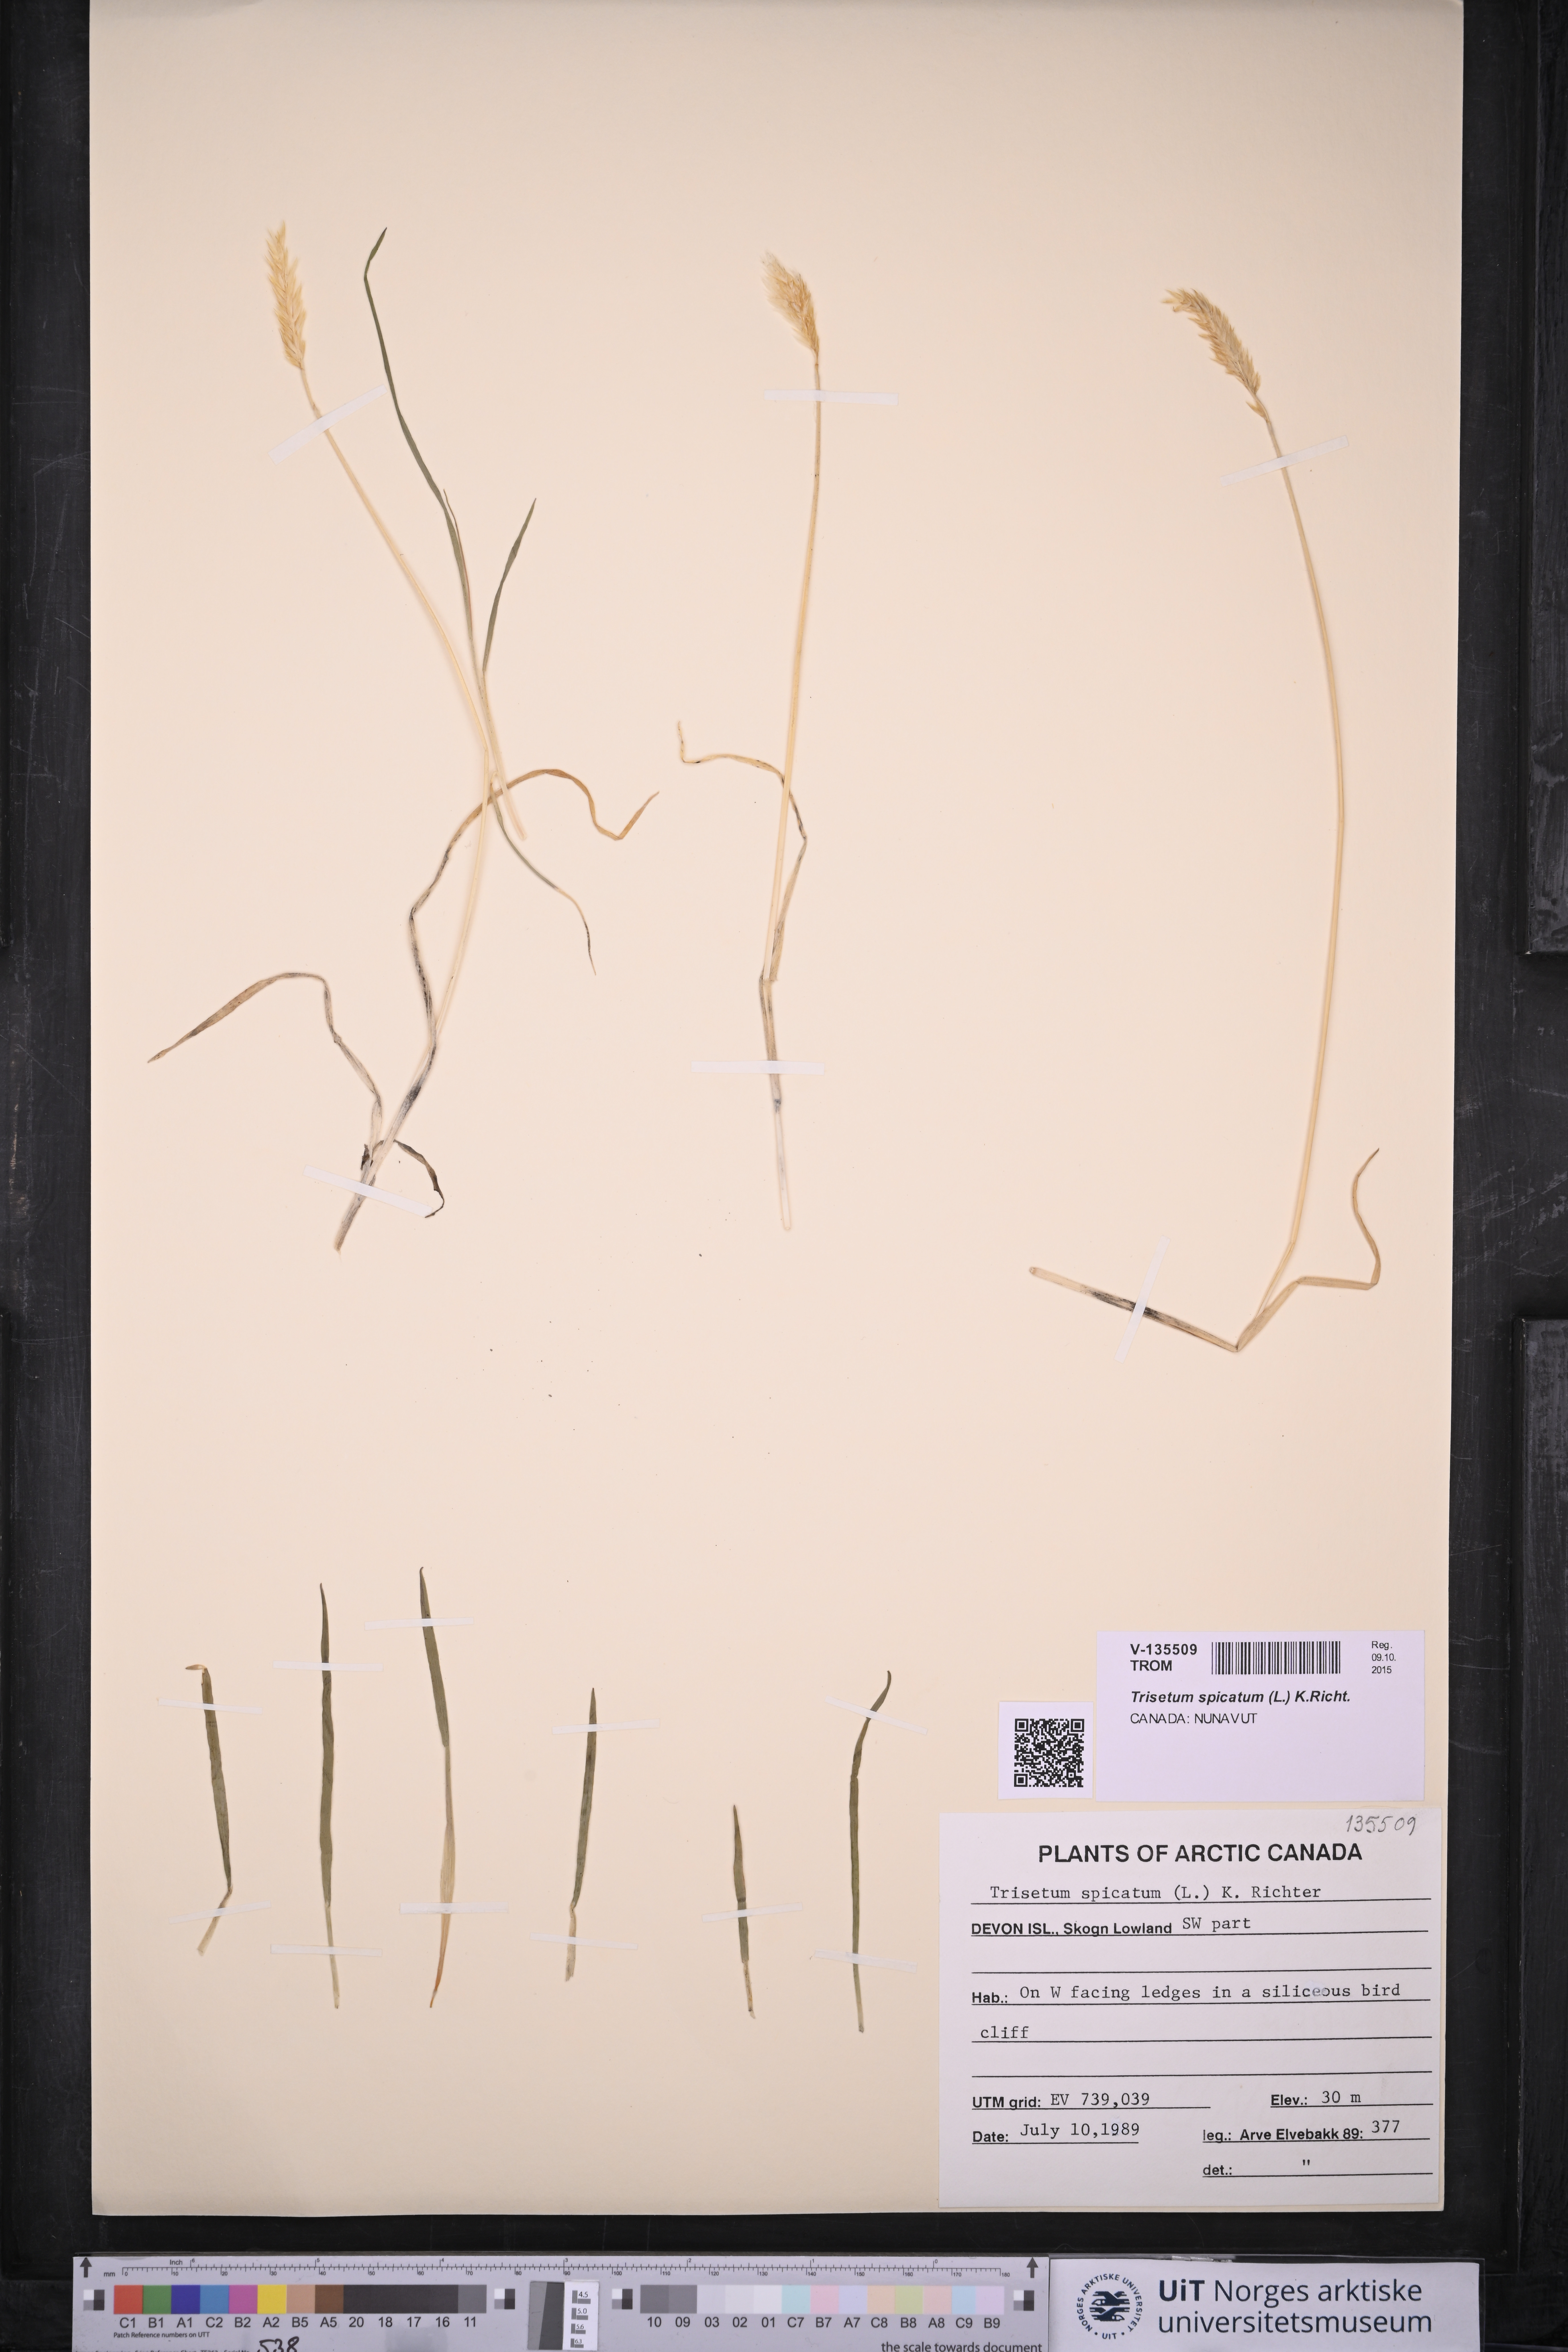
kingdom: Plantae
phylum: Tracheophyta
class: Liliopsida
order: Poales
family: Poaceae
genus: Koeleria
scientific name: Koeleria spicata
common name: Mountain trisetum
